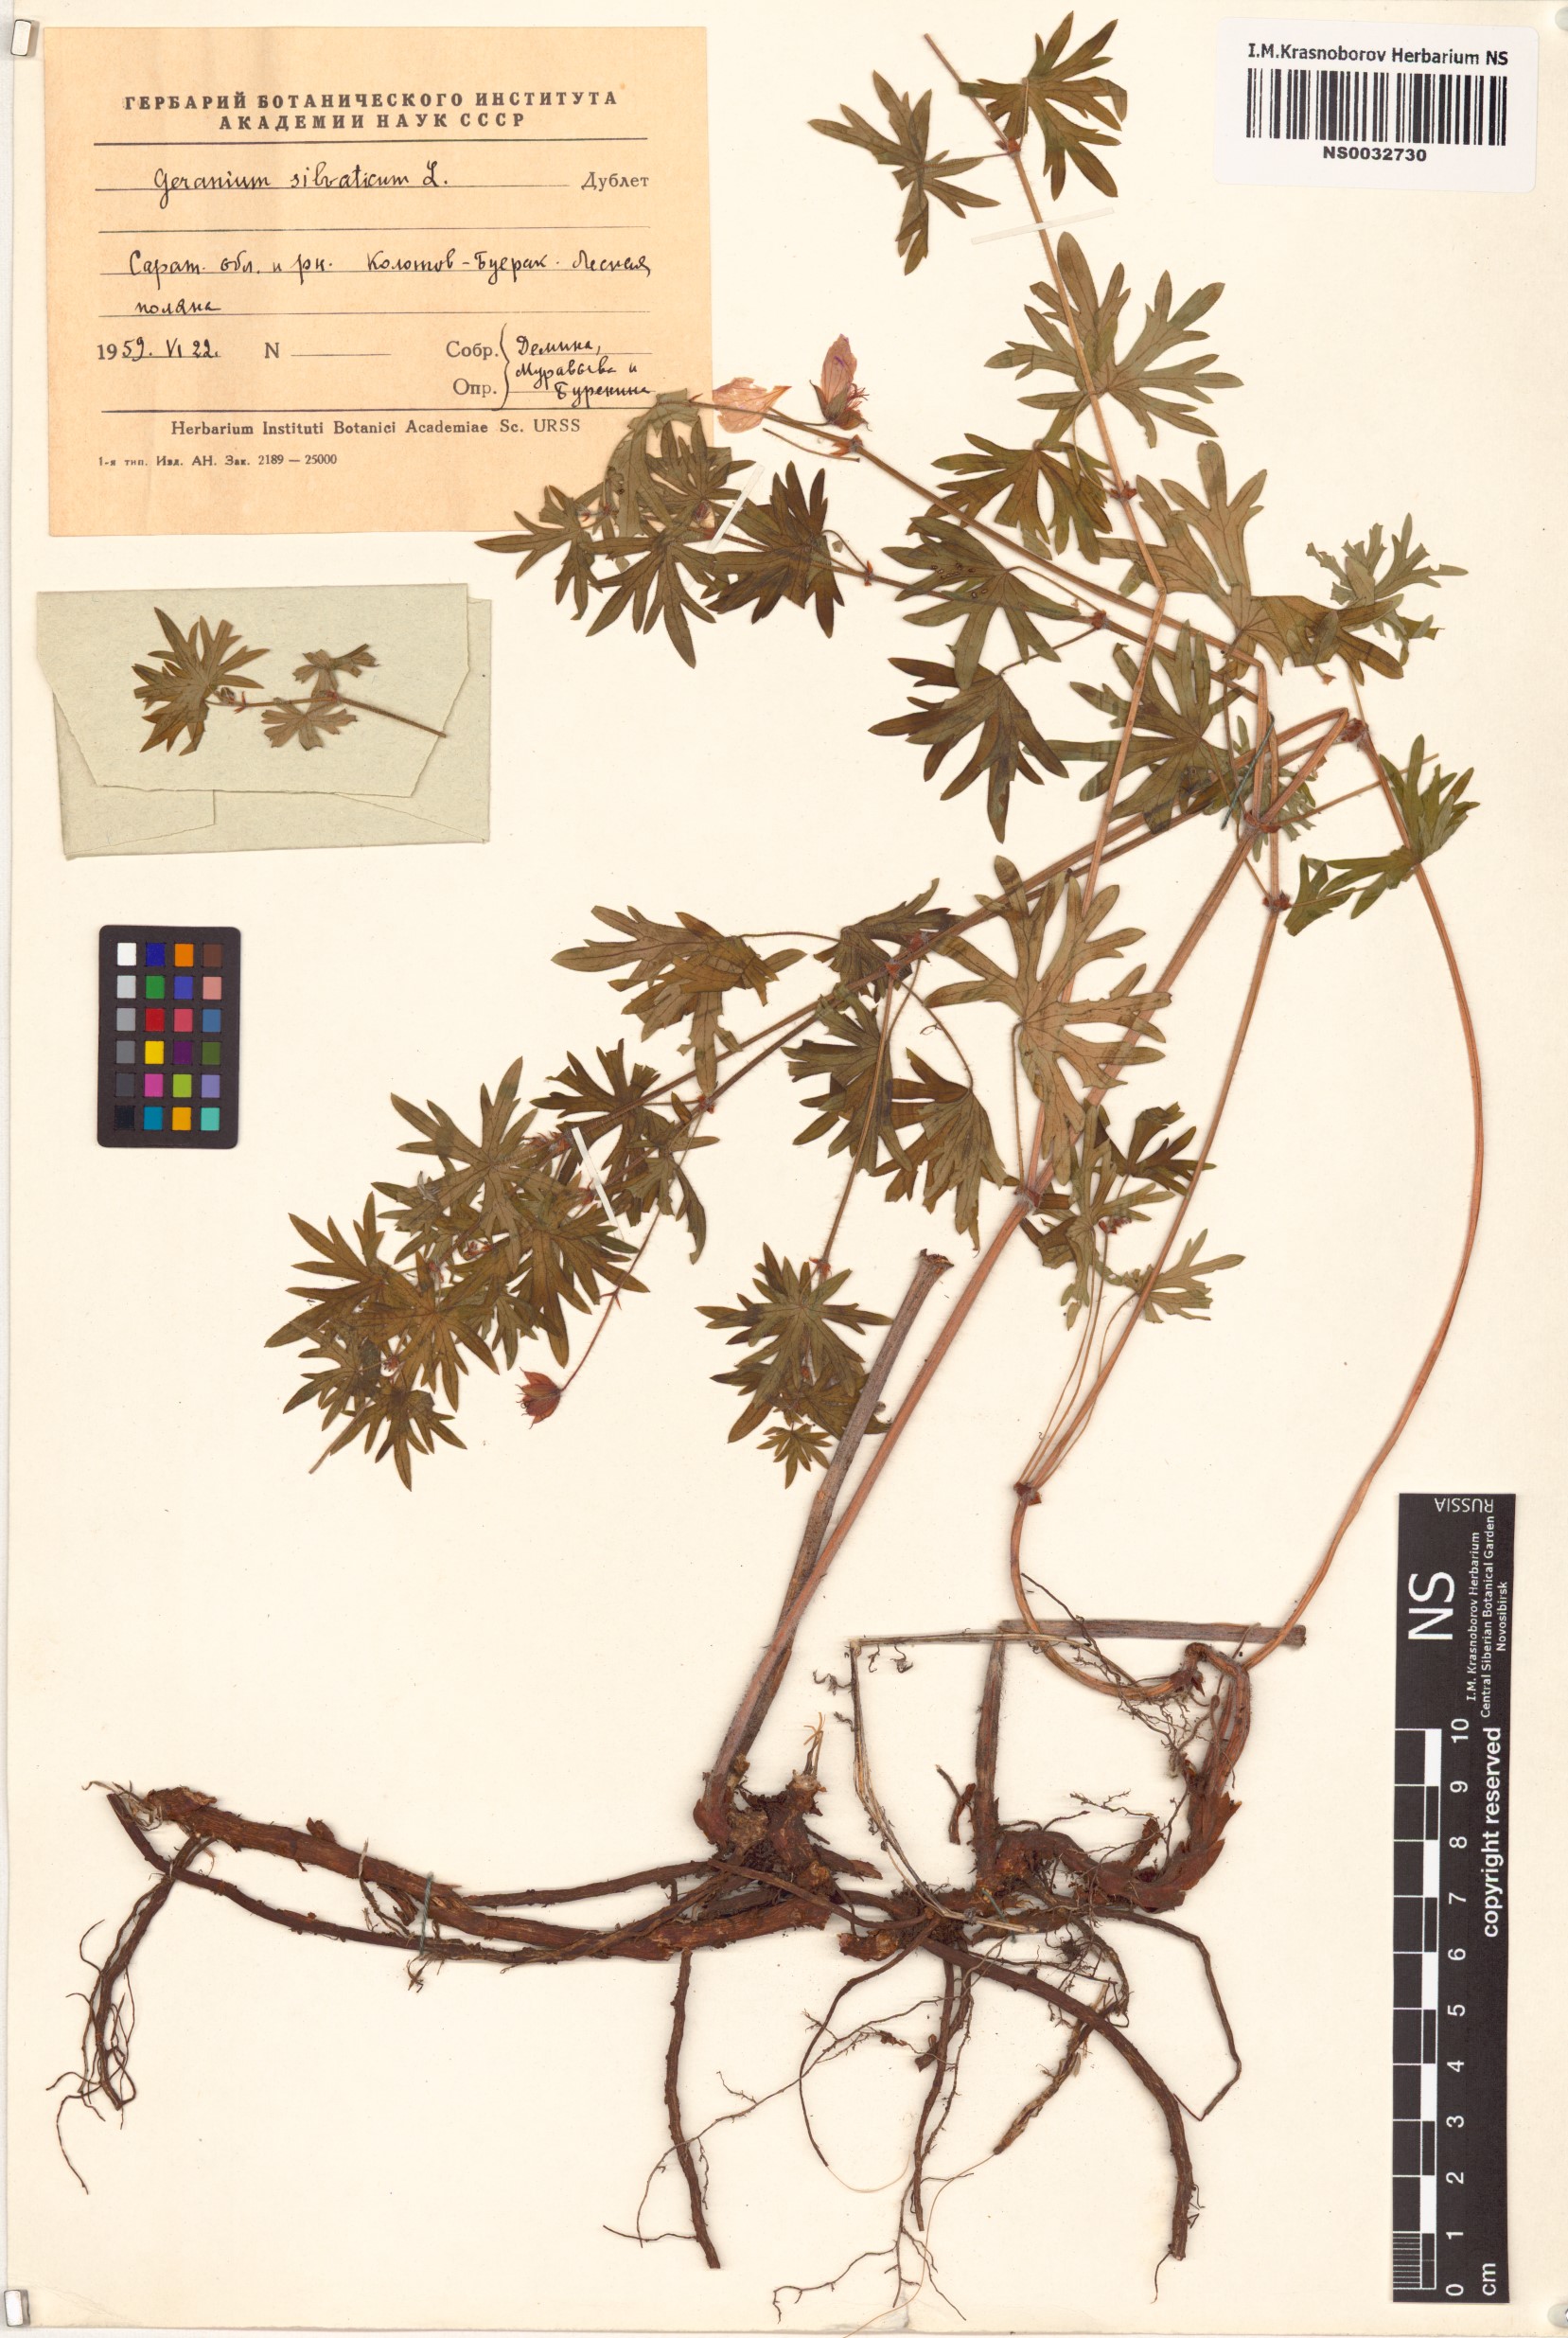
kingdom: Plantae
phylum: Tracheophyta
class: Magnoliopsida
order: Geraniales
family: Geraniaceae
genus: Geranium
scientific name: Geranium sylvaticum
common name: Wood crane's-bill
